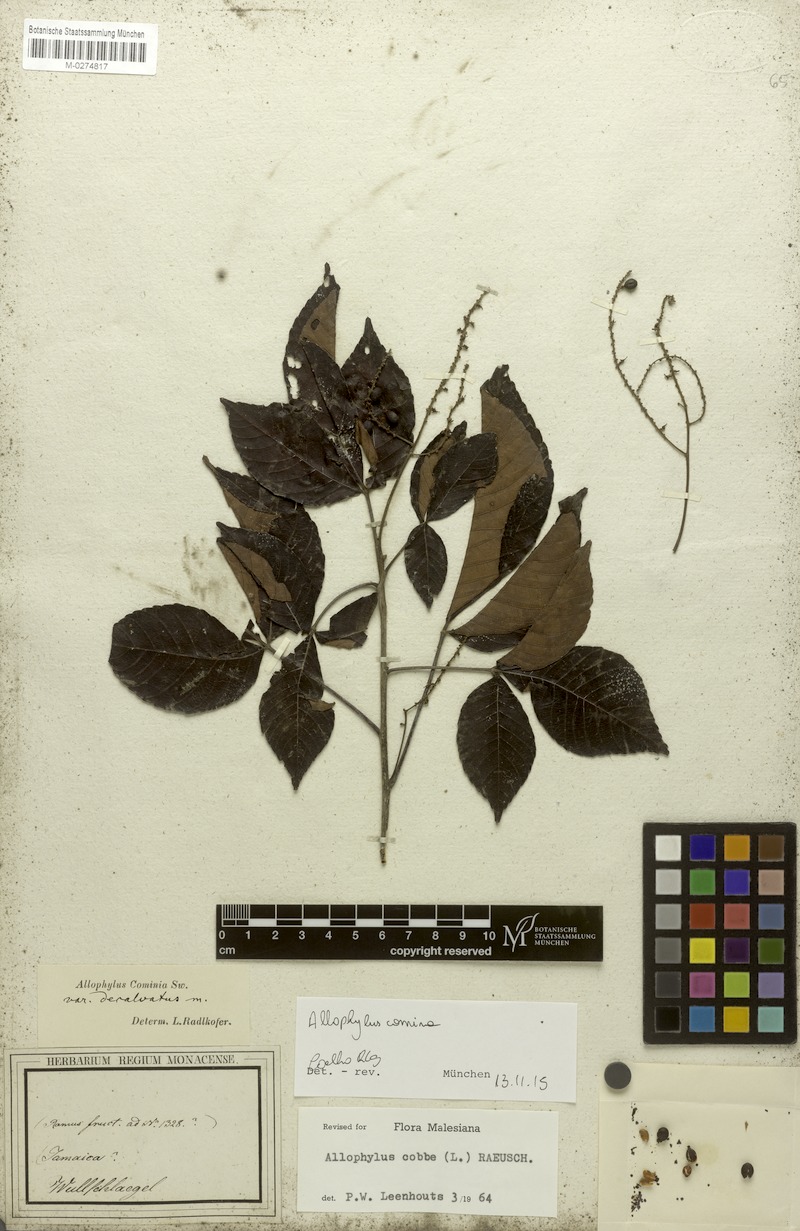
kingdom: Plantae
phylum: Tracheophyta
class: Magnoliopsida
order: Sapindales
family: Sapindaceae
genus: Allophylus
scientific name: Allophylus cominia
